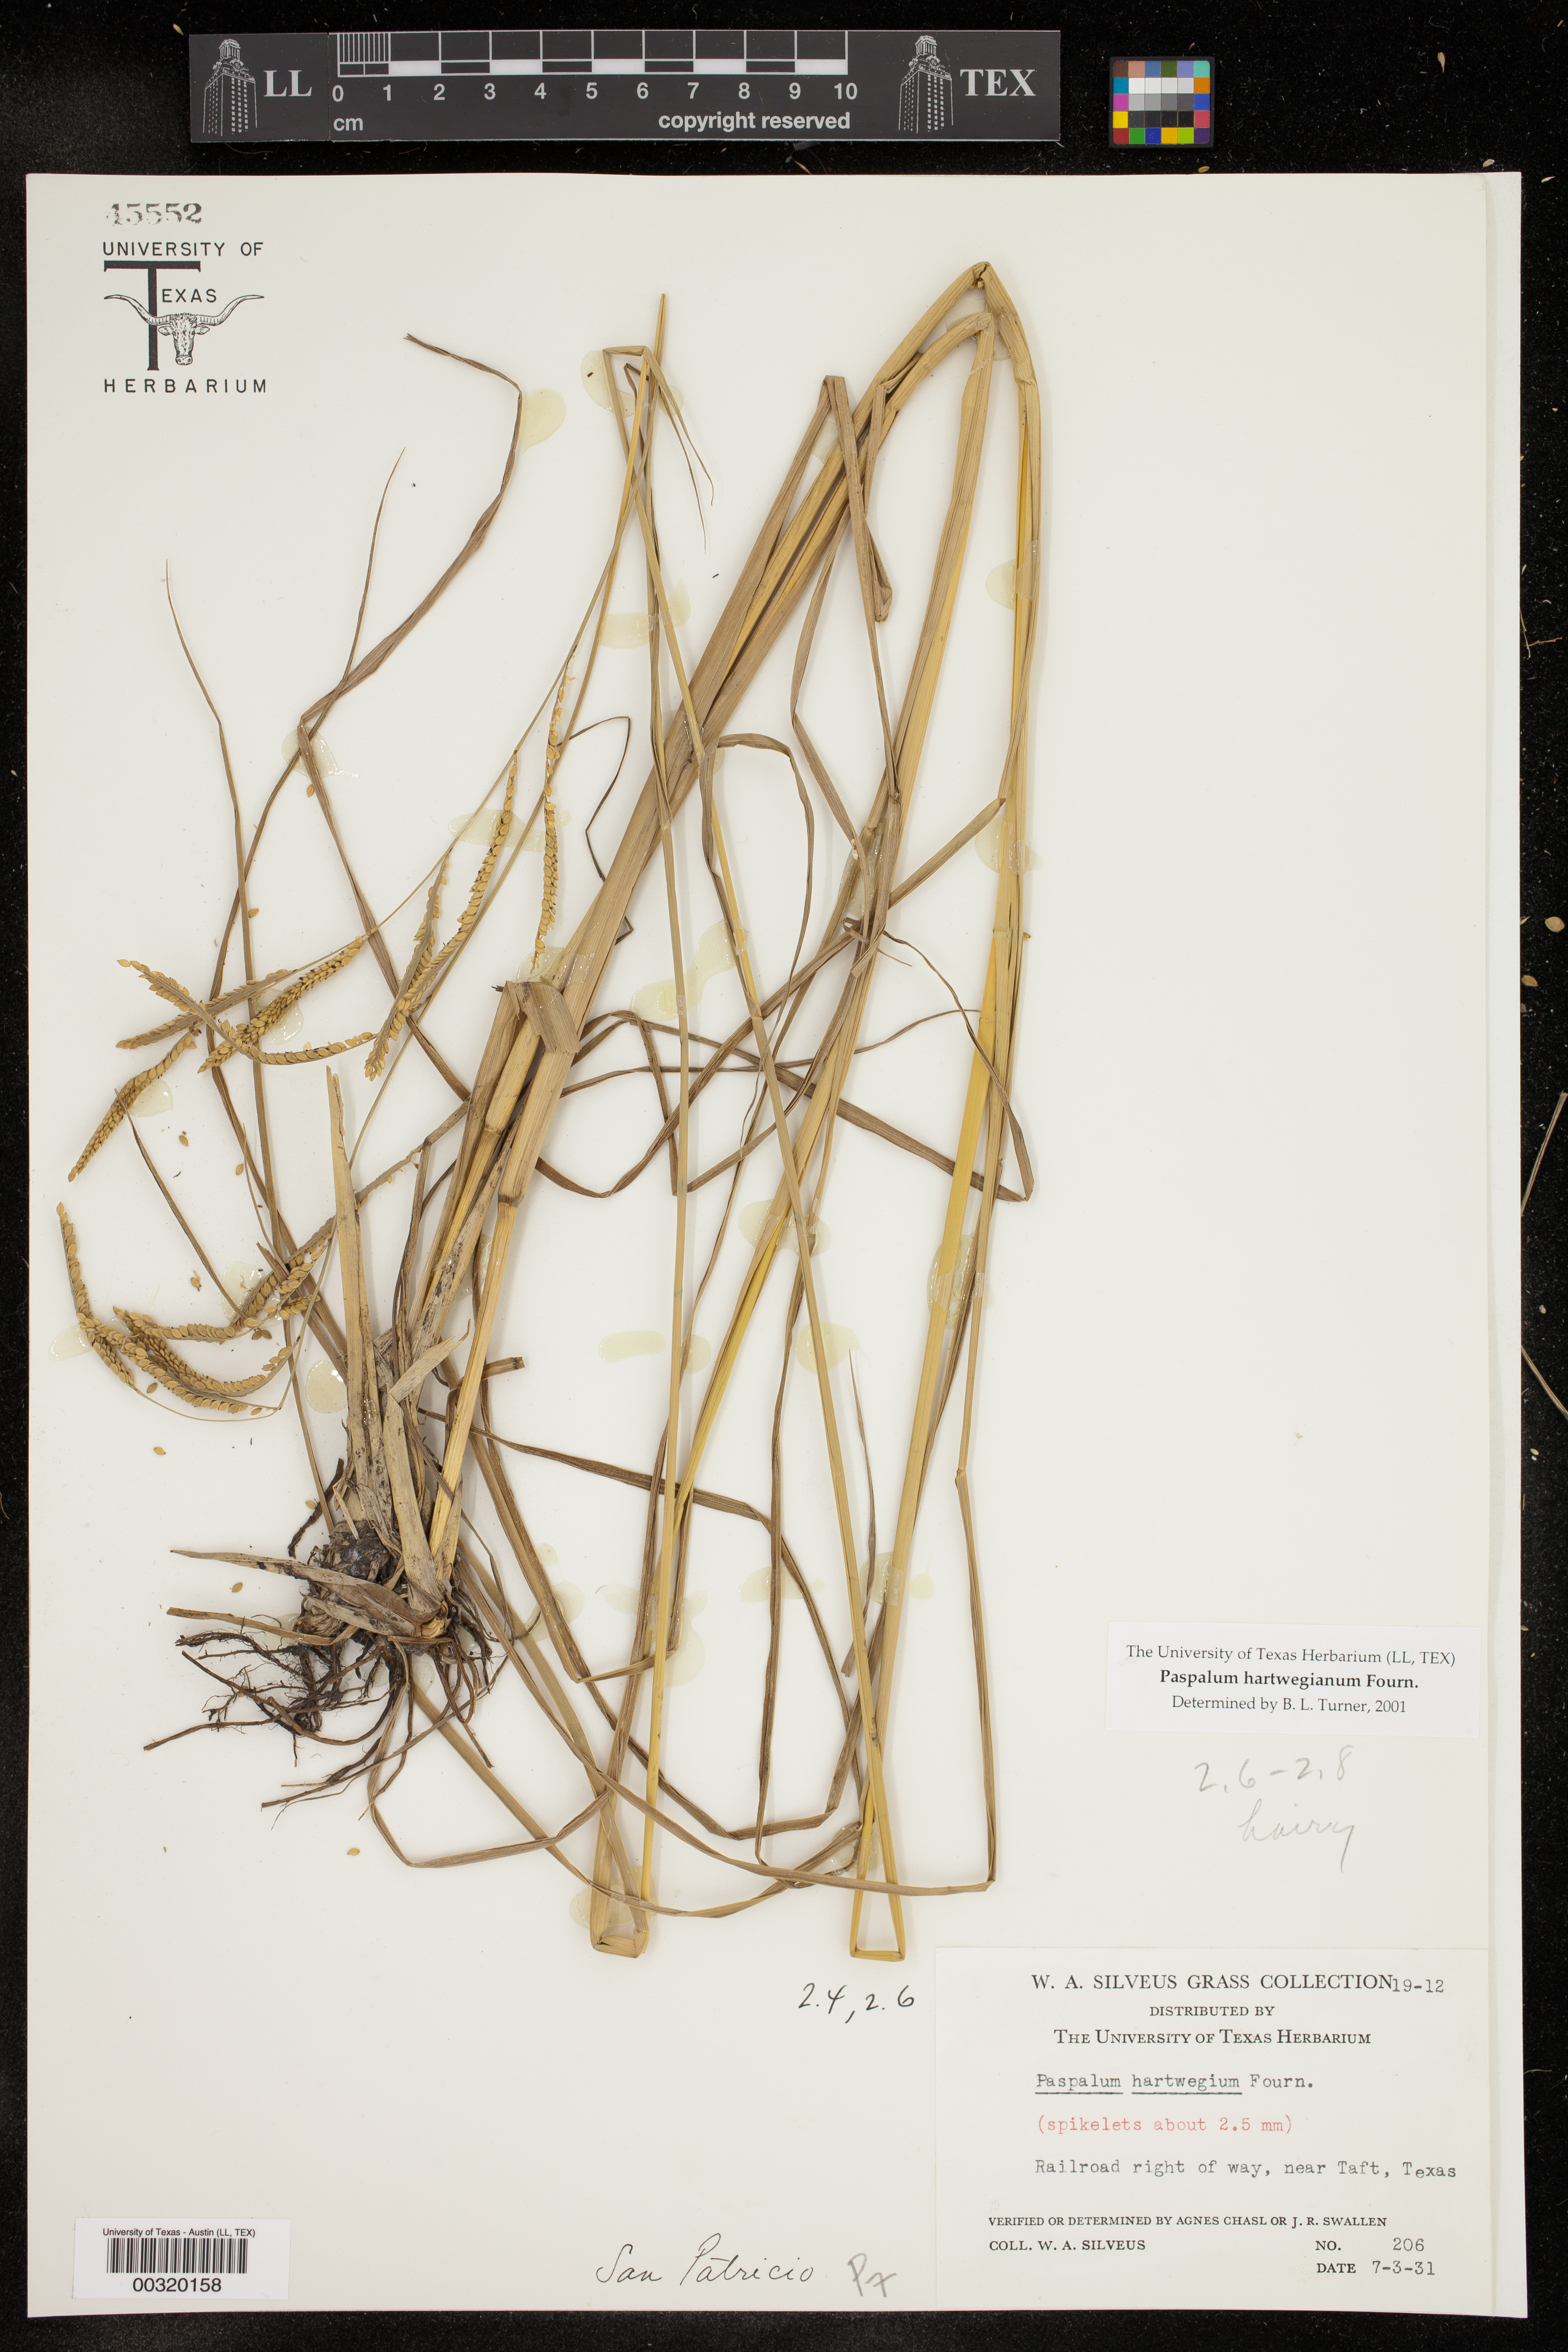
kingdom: Plantae
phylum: Tracheophyta
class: Liliopsida
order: Poales
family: Poaceae
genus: Paspalum
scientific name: Paspalum hartwegianum
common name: Hartweg's paspalum
